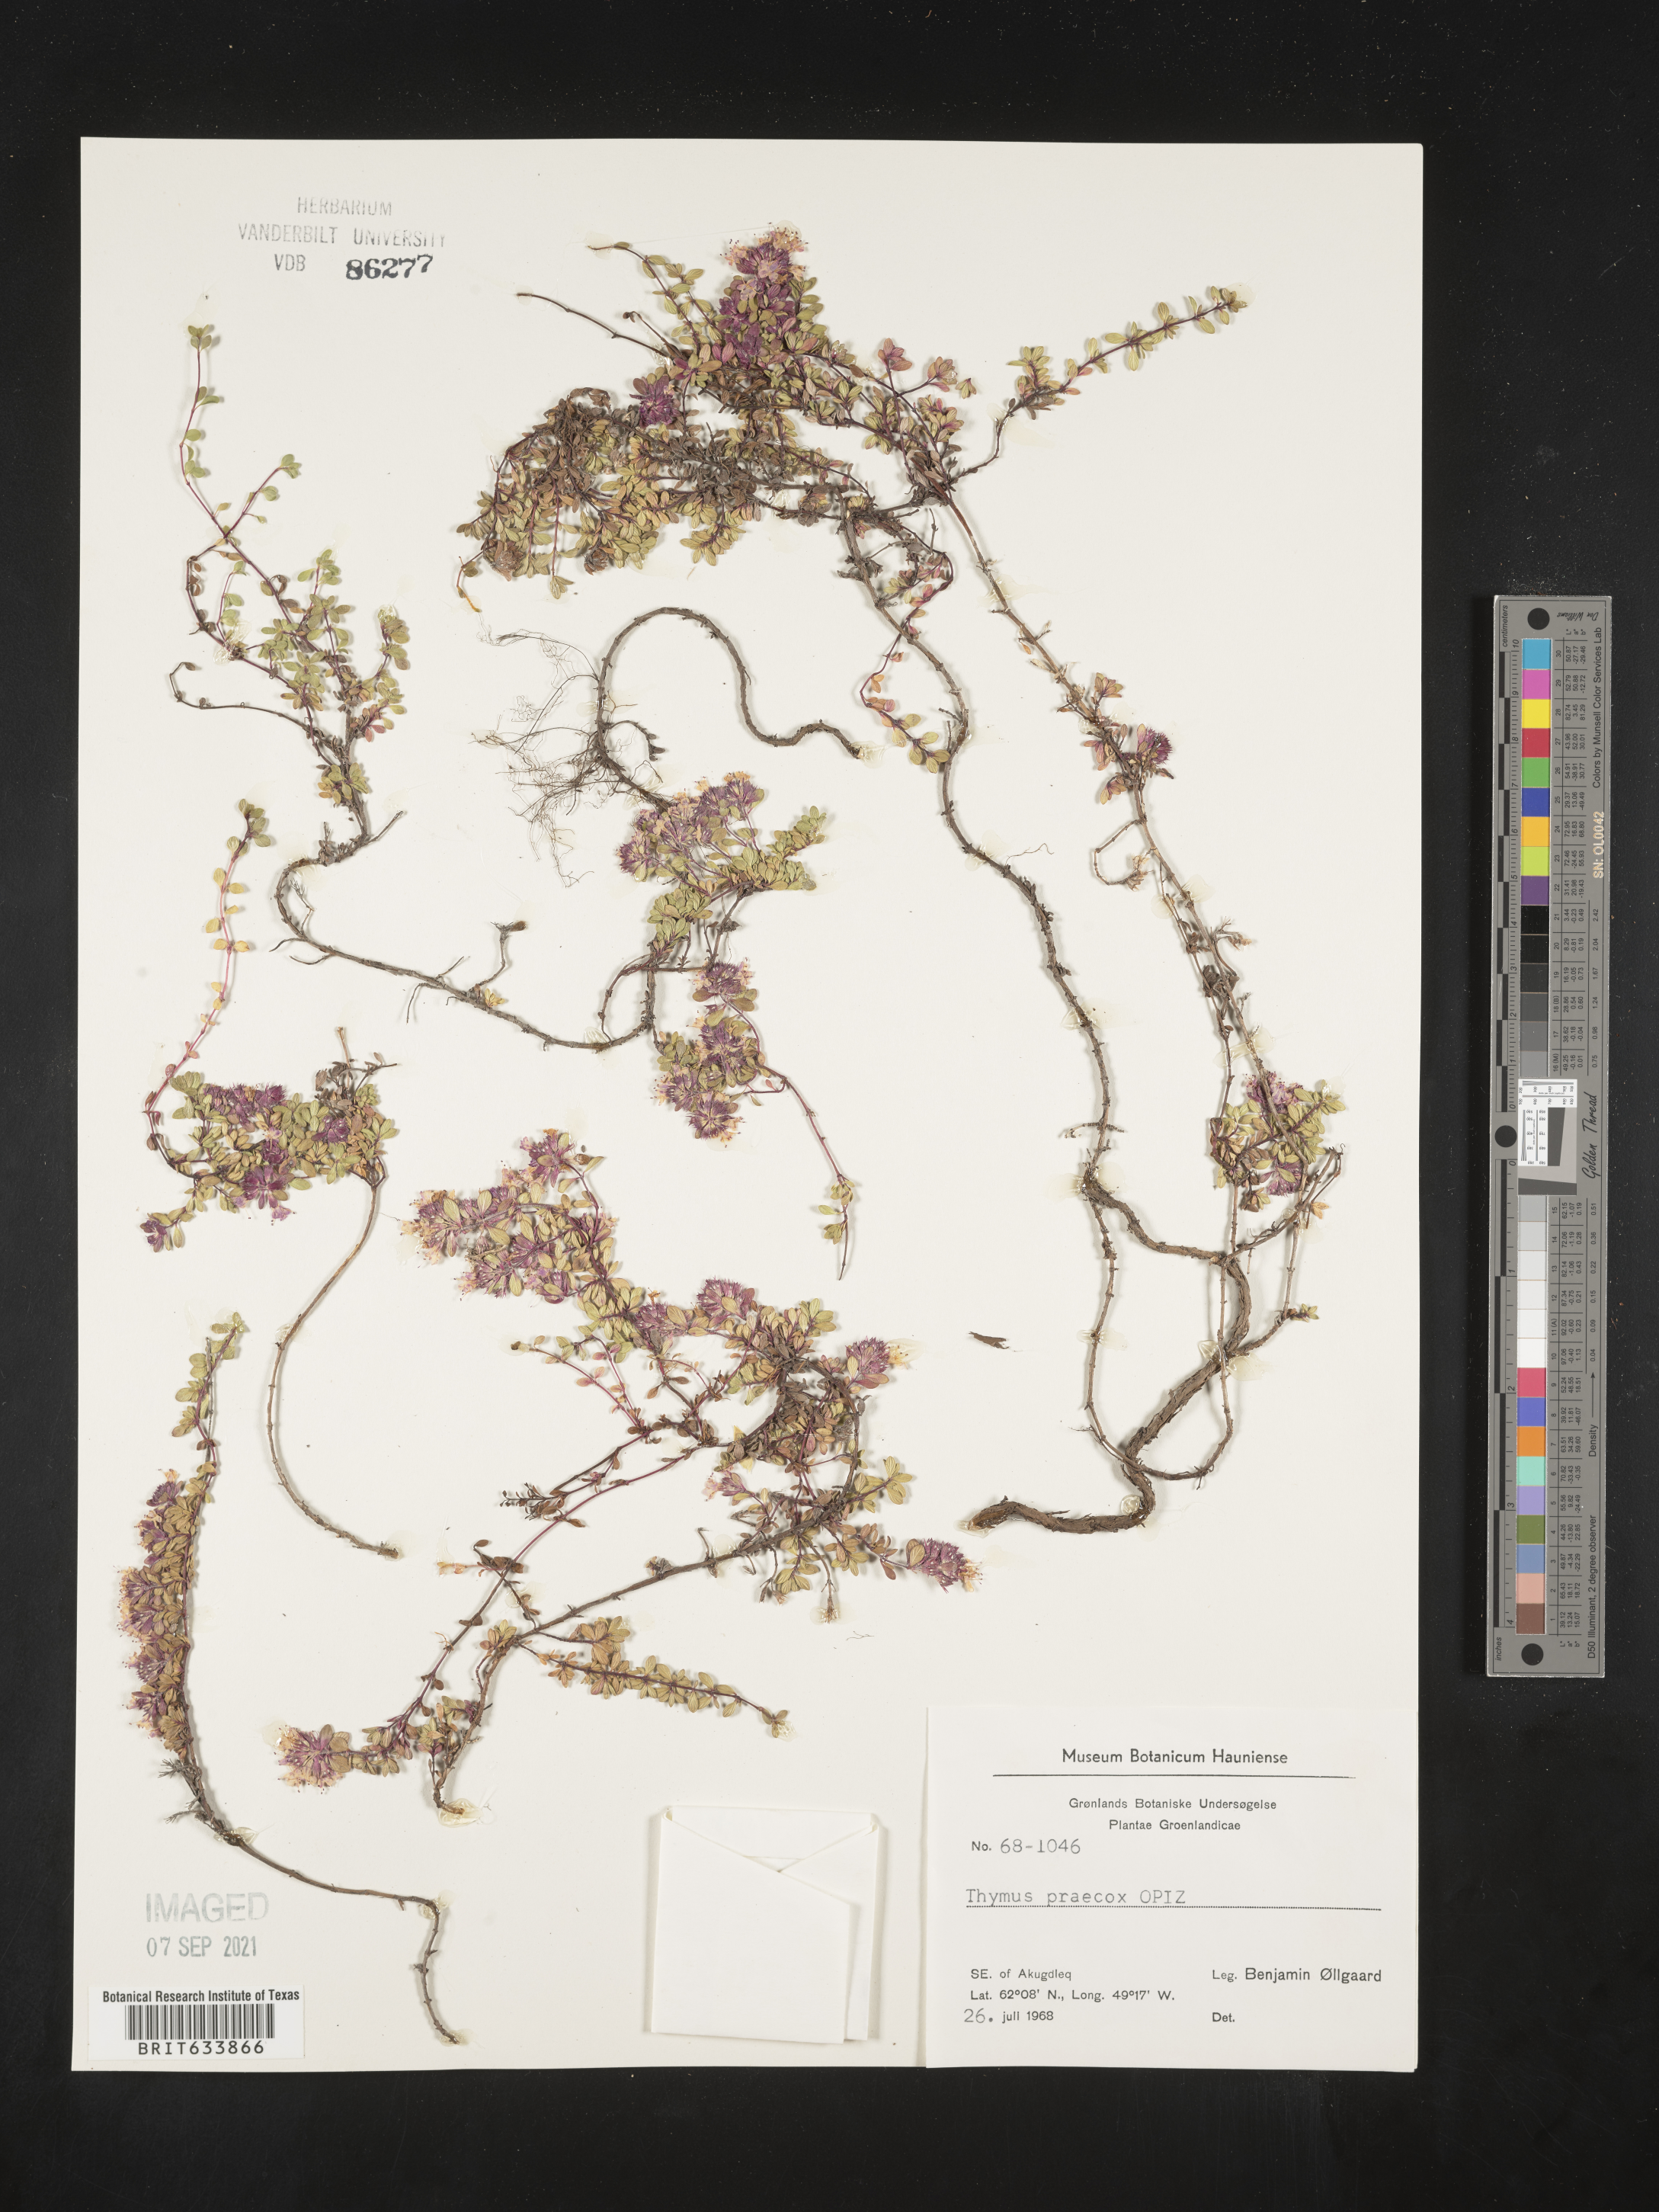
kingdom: Plantae
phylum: Tracheophyta
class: Magnoliopsida
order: Lamiales
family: Lamiaceae
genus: Thymus
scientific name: Thymus
